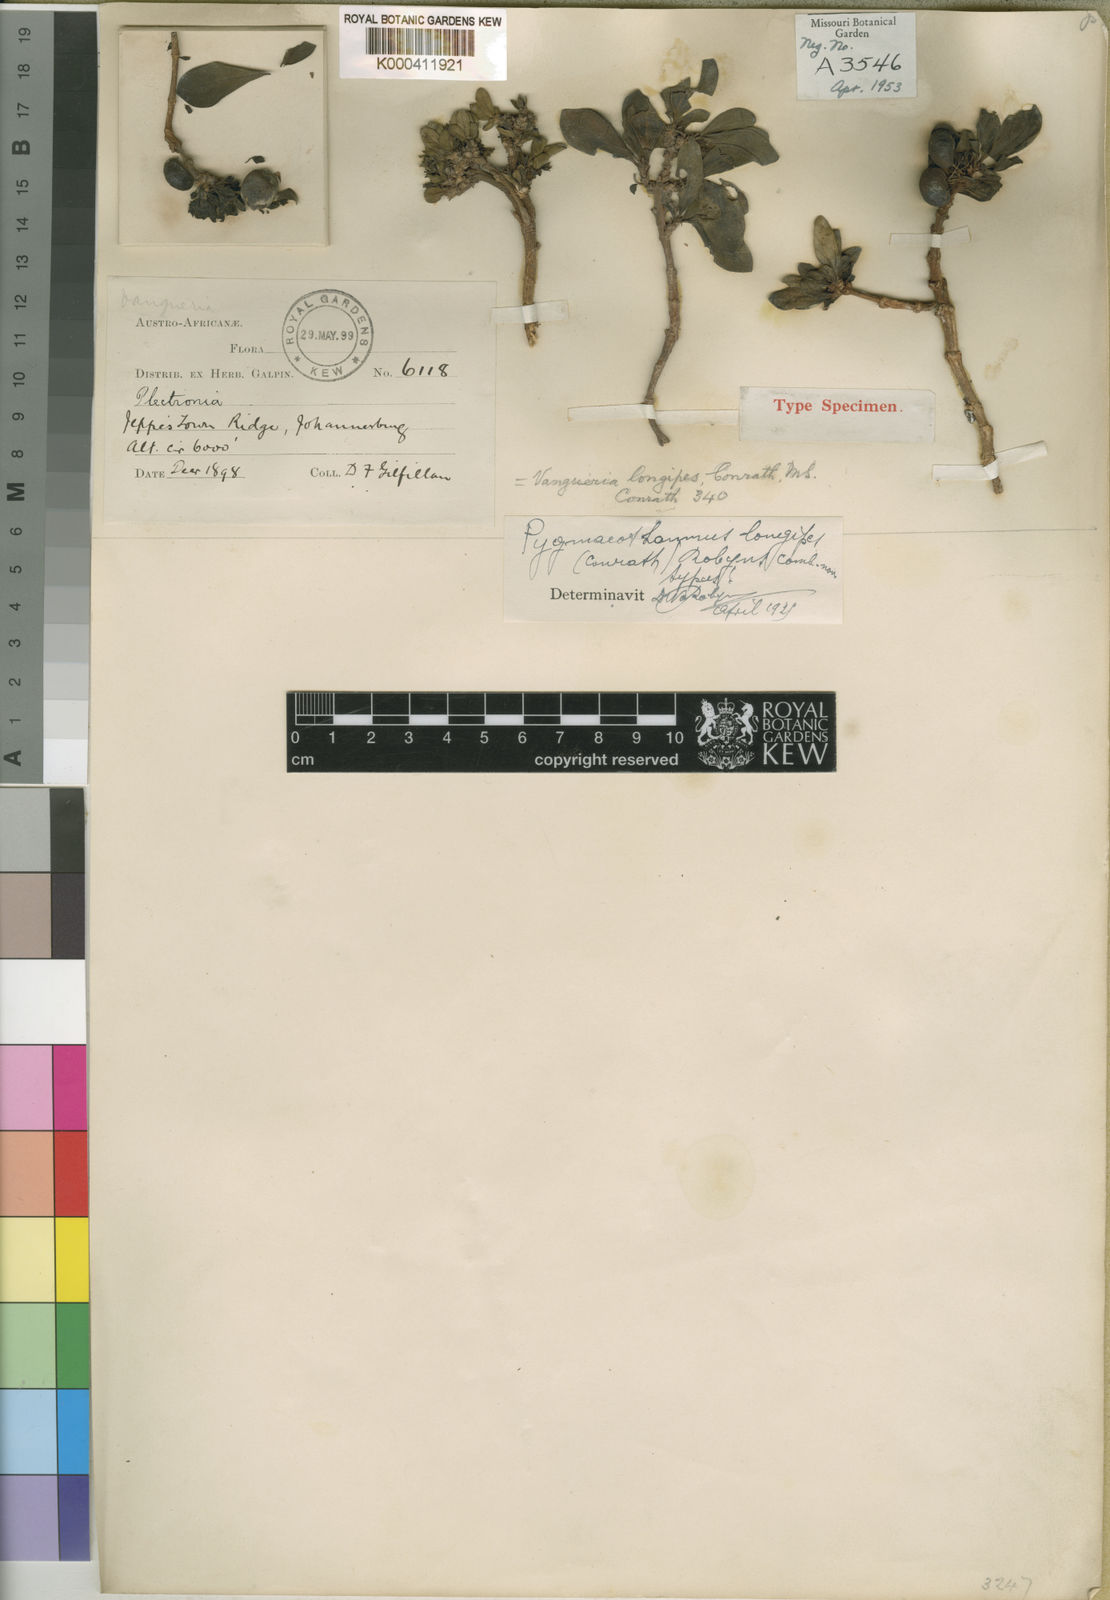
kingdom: Plantae
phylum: Tracheophyta
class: Magnoliopsida
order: Gentianales
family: Rubiaceae
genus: Bridsonia
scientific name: Bridsonia chamaedendrum
